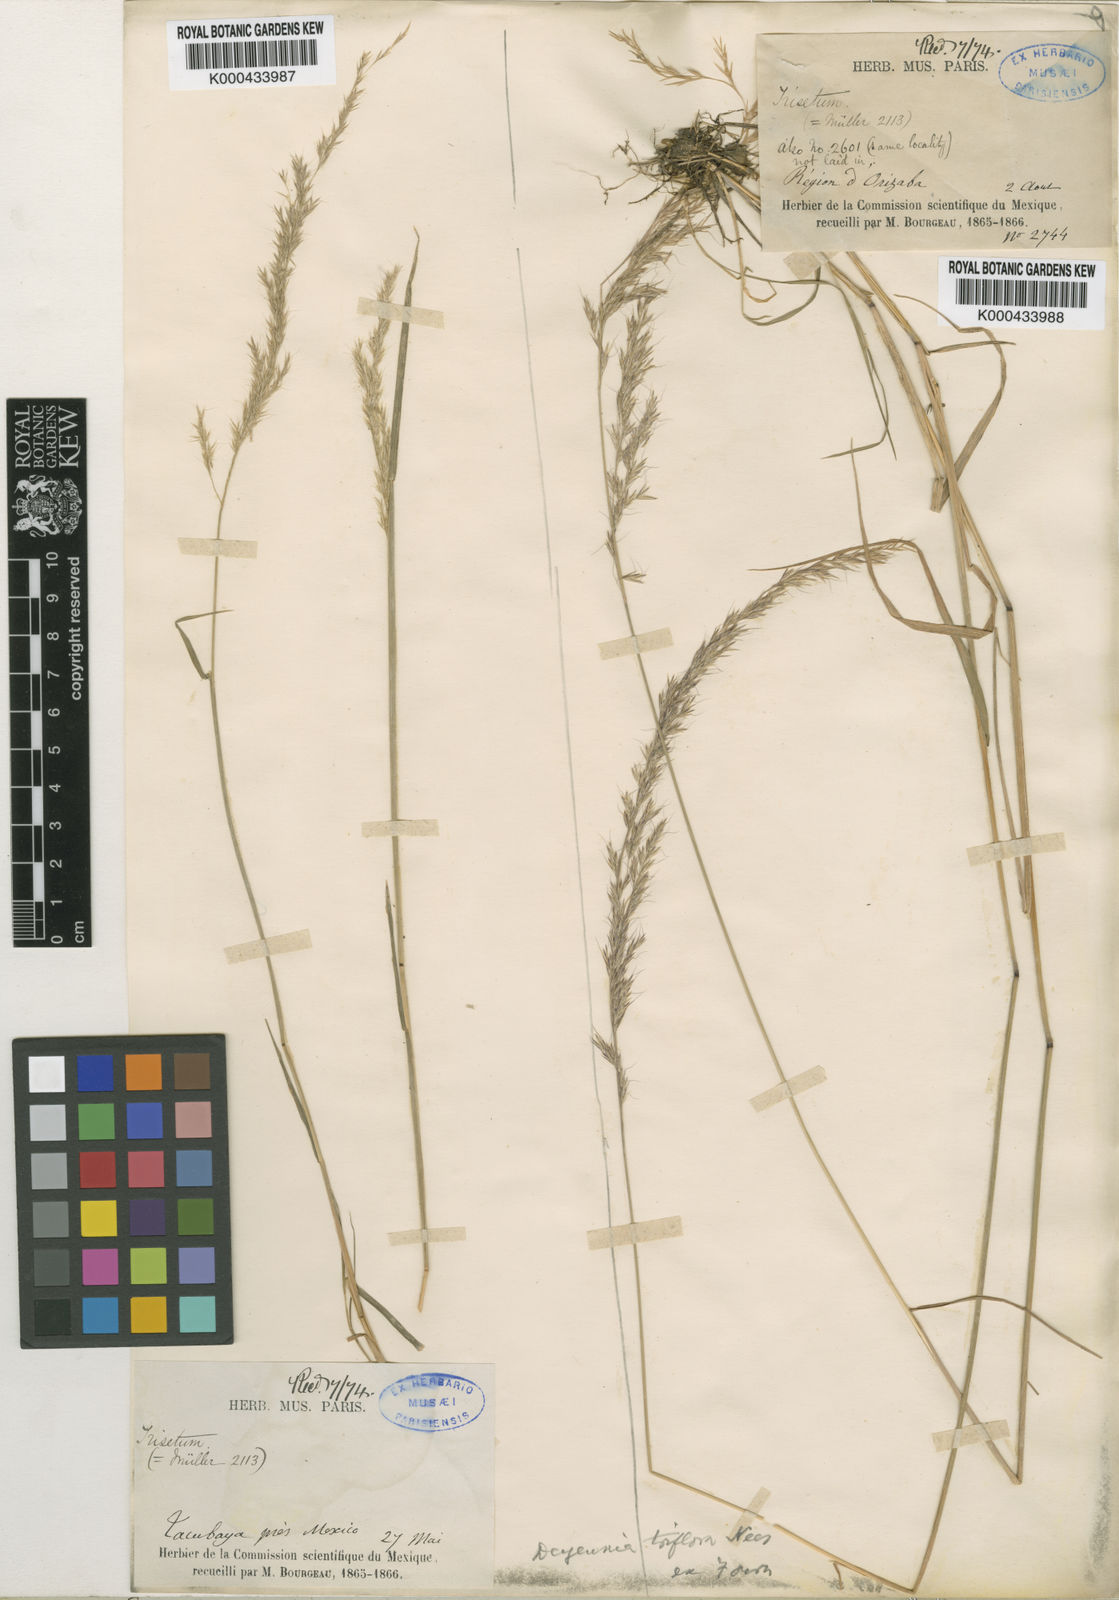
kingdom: Plantae
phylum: Tracheophyta
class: Liliopsida
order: Poales
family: Poaceae
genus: Peyritschia
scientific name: Peyritschia deyeuxioides
